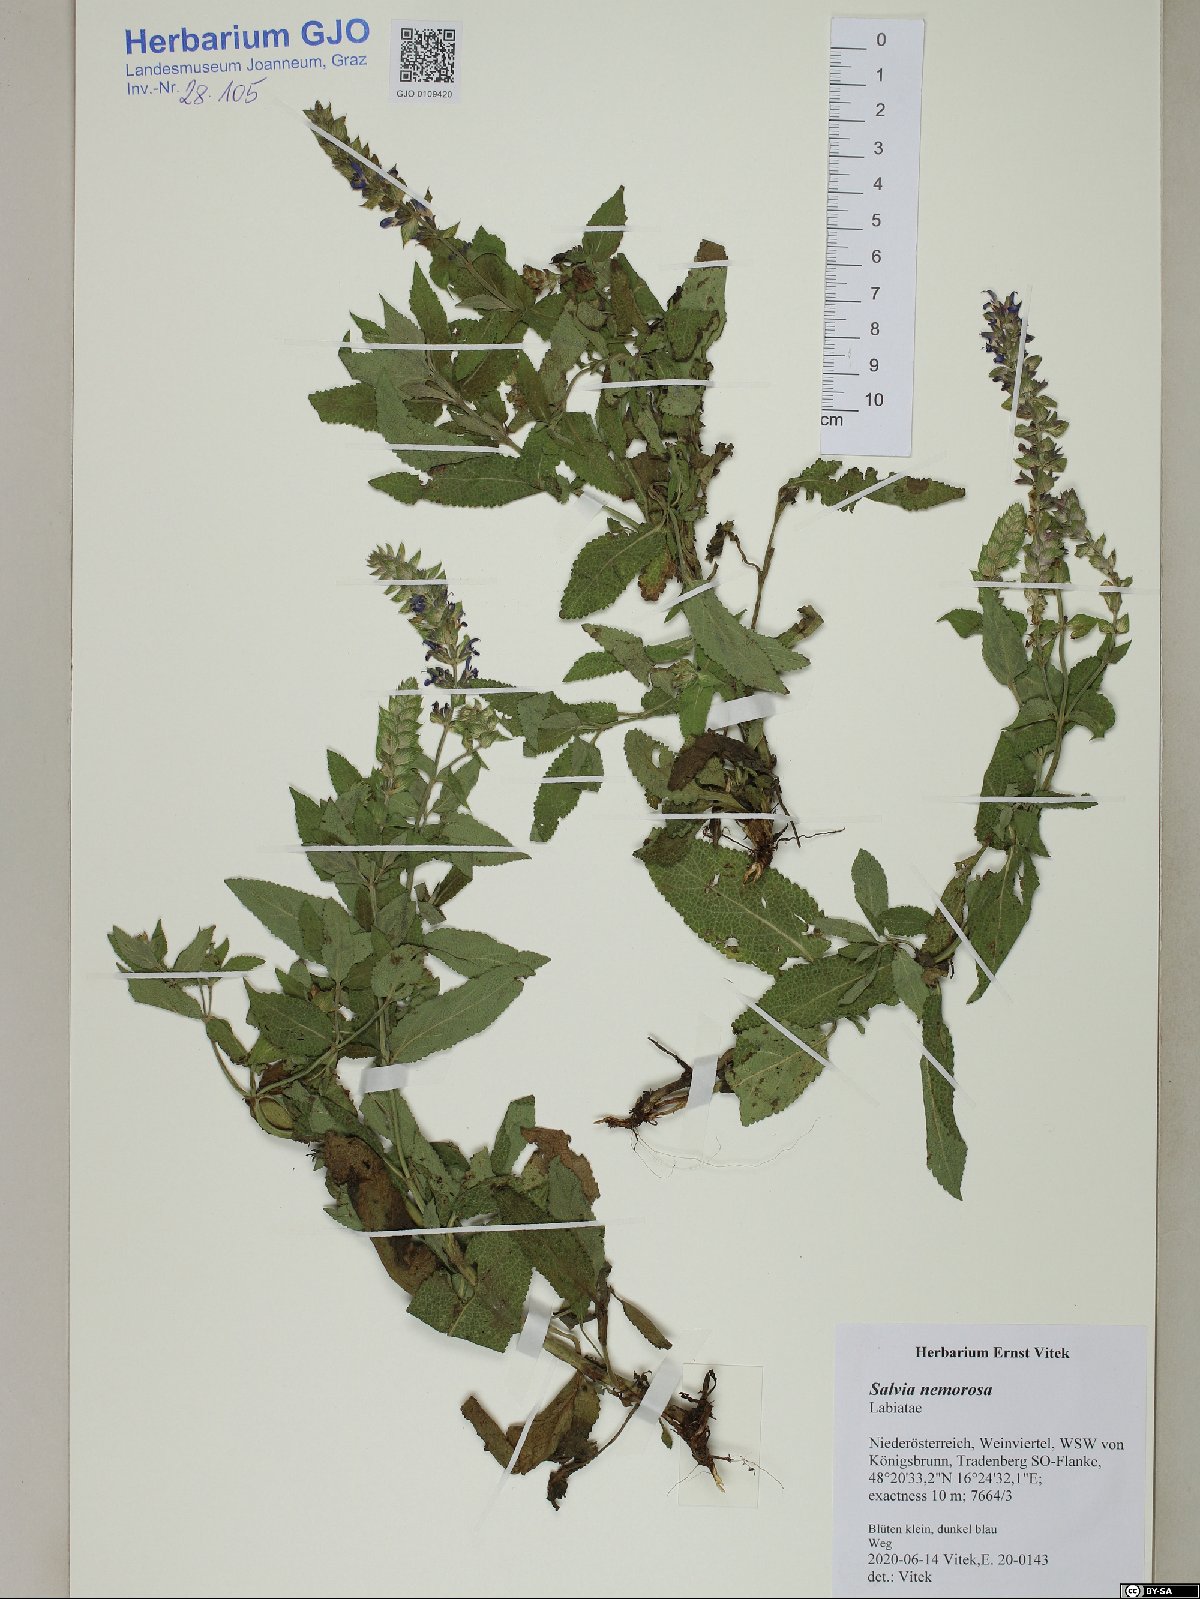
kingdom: Plantae
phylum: Tracheophyta
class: Magnoliopsida
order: Lamiales
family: Lamiaceae
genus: Salvia
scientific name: Salvia nemorosa
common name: Balkan clary
